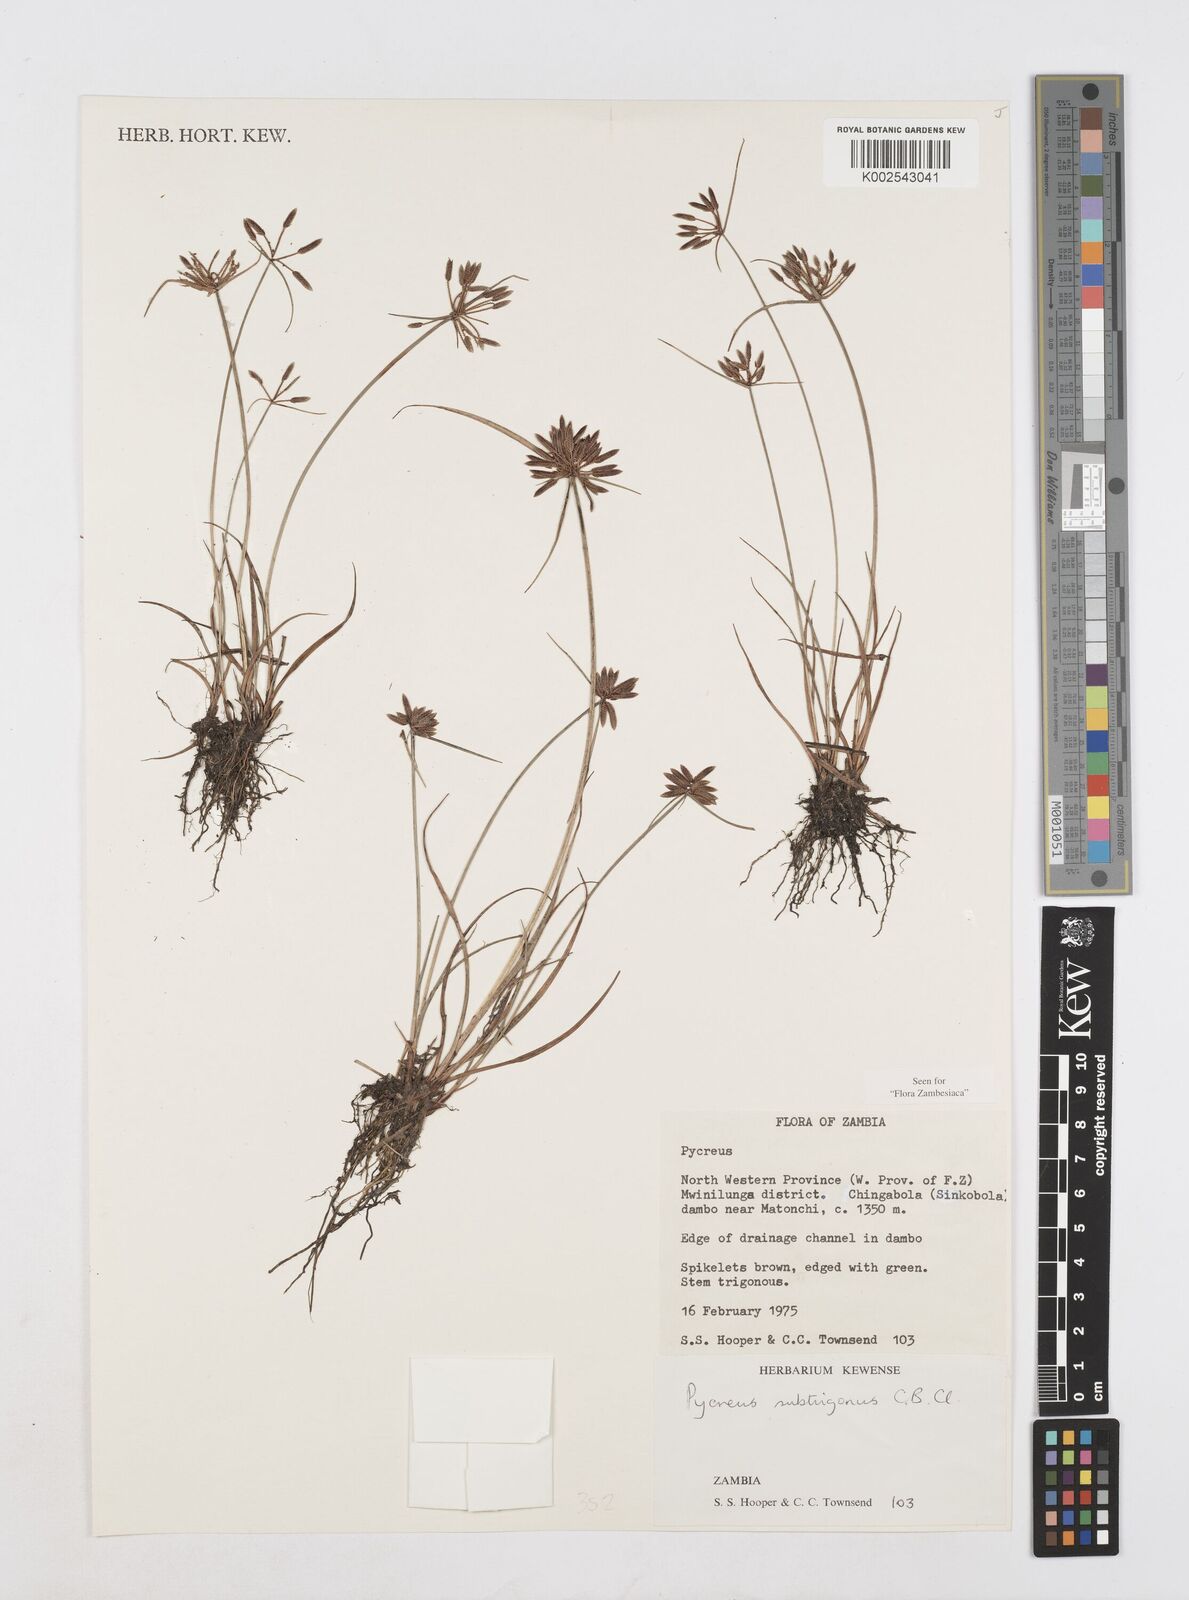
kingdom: Plantae
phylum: Tracheophyta
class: Liliopsida
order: Poales
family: Cyperaceae
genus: Cyperus
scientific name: Cyperus subtrigonus
